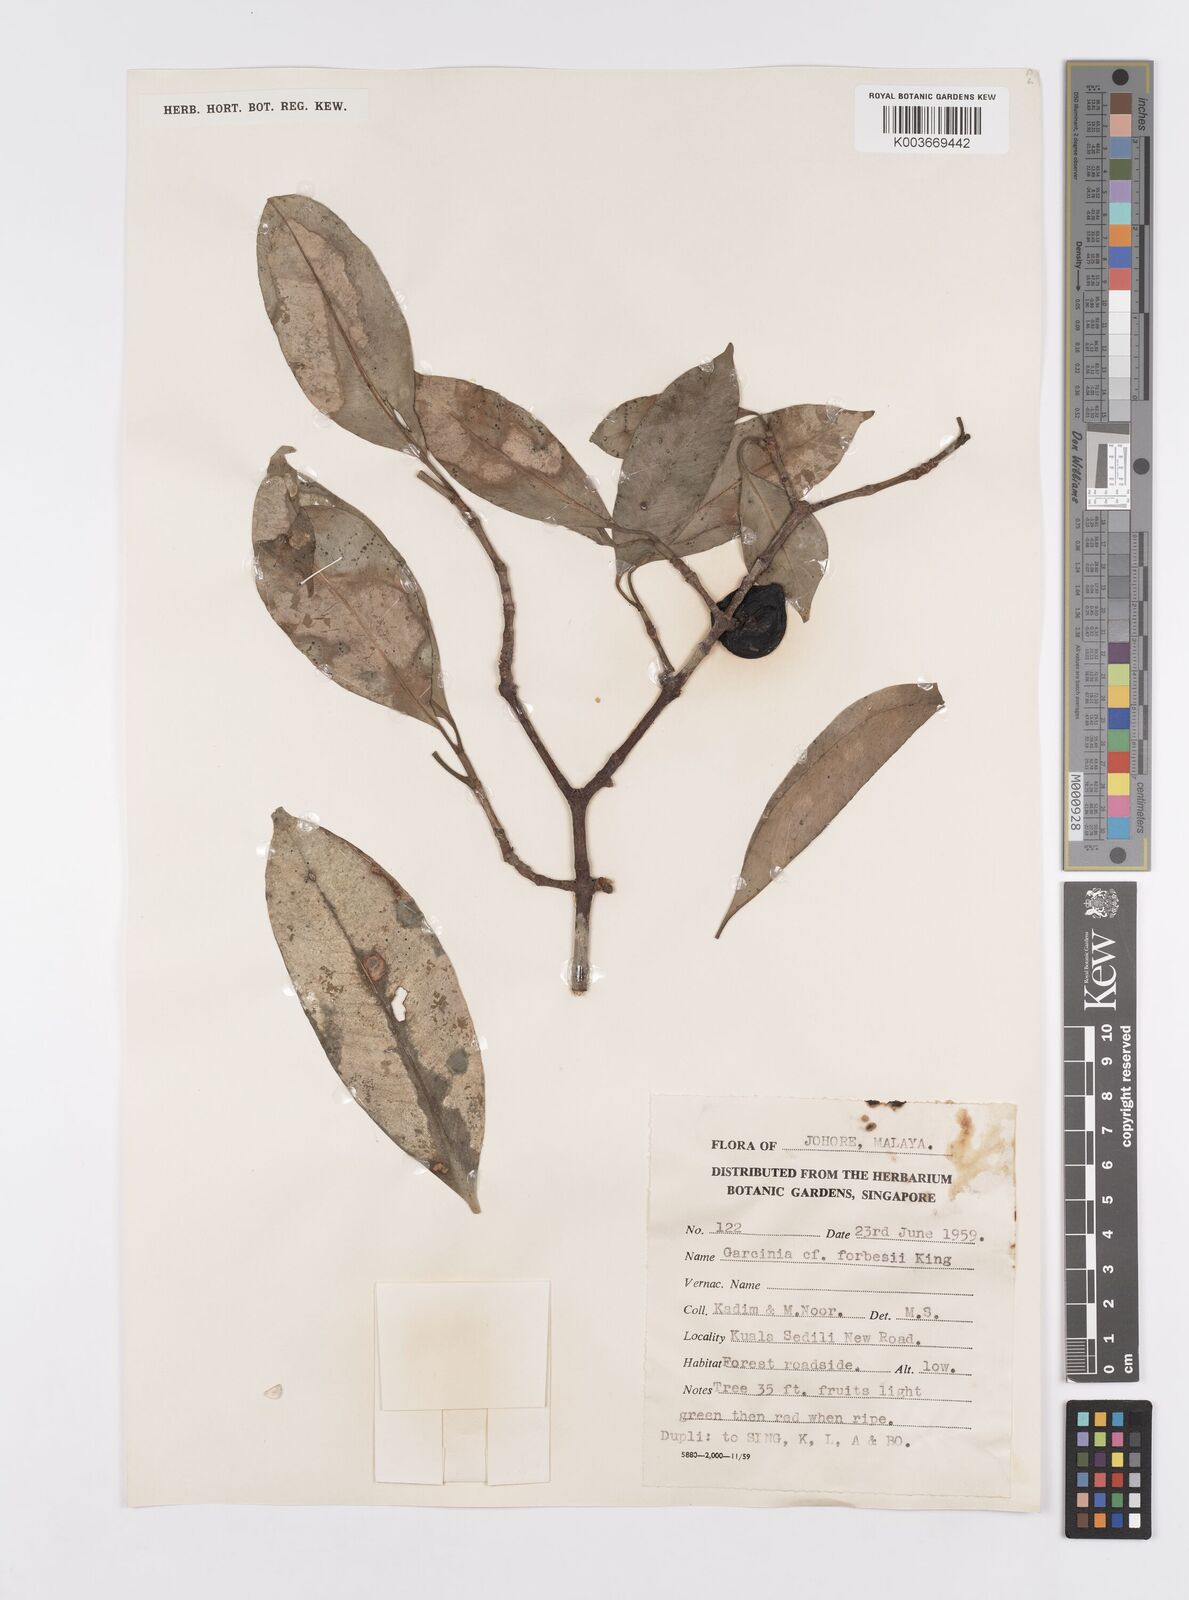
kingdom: Plantae
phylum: Tracheophyta
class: Magnoliopsida
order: Malpighiales
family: Clusiaceae
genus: Garcinia
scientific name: Garcinia forbesii
